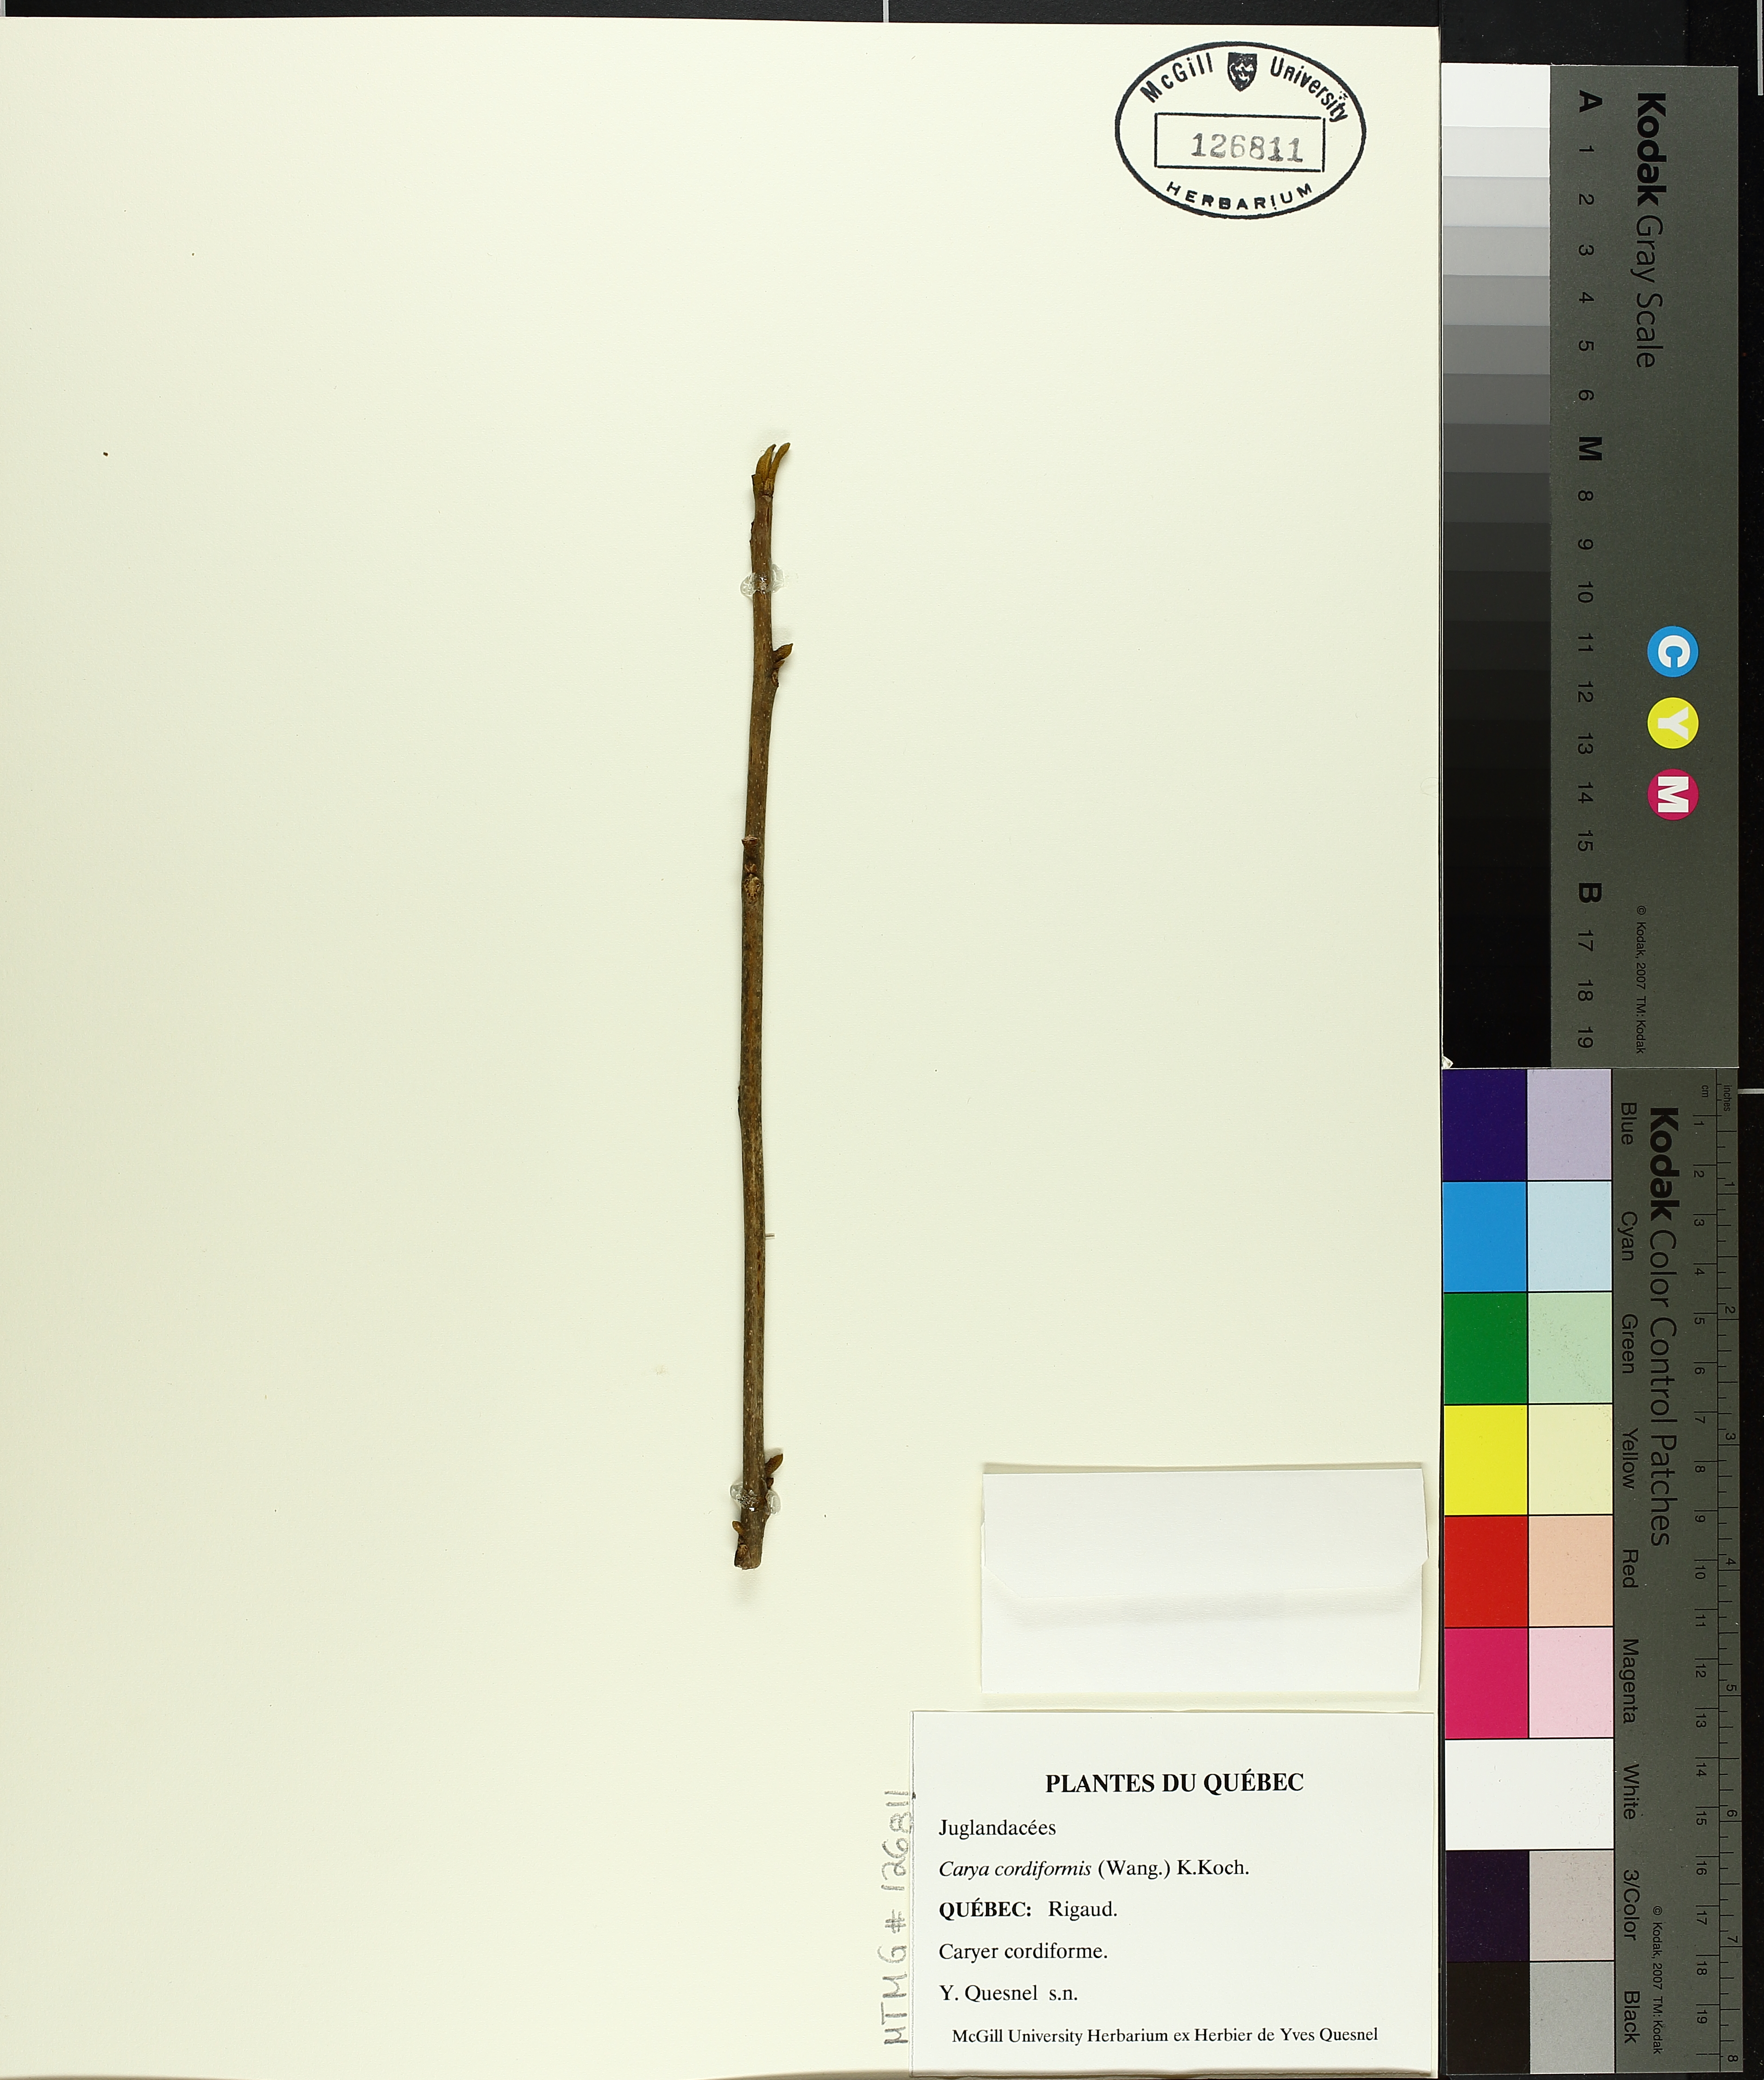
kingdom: Plantae
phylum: Tracheophyta
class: Magnoliopsida
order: Fagales
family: Juglandaceae
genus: Carya
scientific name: Carya cordiformis
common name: Bitternut hickory
